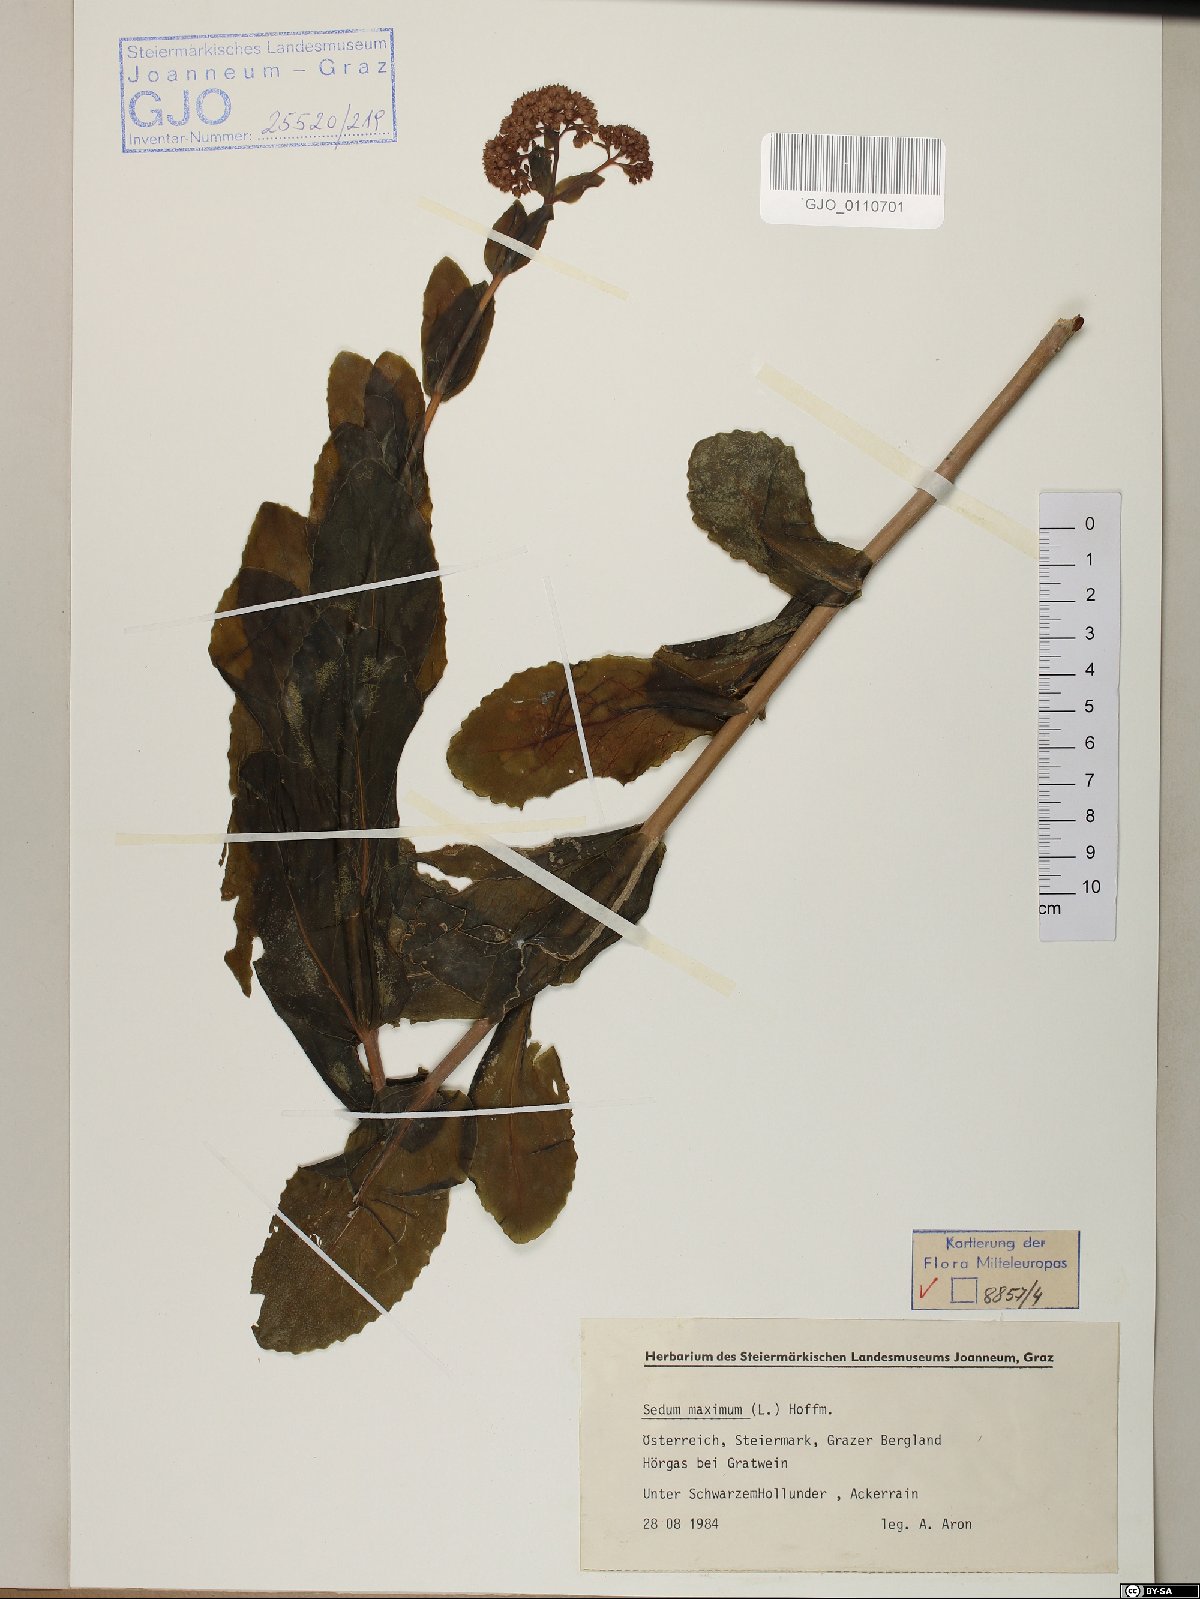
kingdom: Plantae
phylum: Tracheophyta
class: Magnoliopsida
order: Saxifragales
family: Crassulaceae
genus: Hylotelephium
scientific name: Hylotelephium maximum
